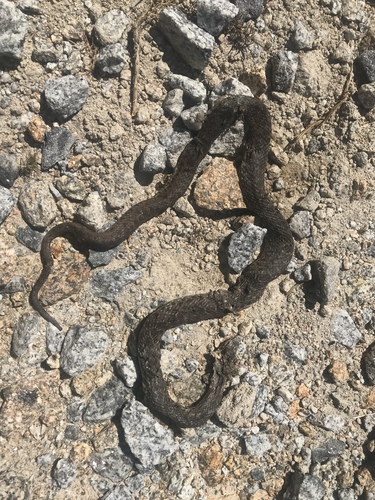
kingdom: Animalia
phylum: Chordata
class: Squamata
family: Psammophiidae
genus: Malpolon
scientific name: Malpolon monspessulanus
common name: Montpellier snake
